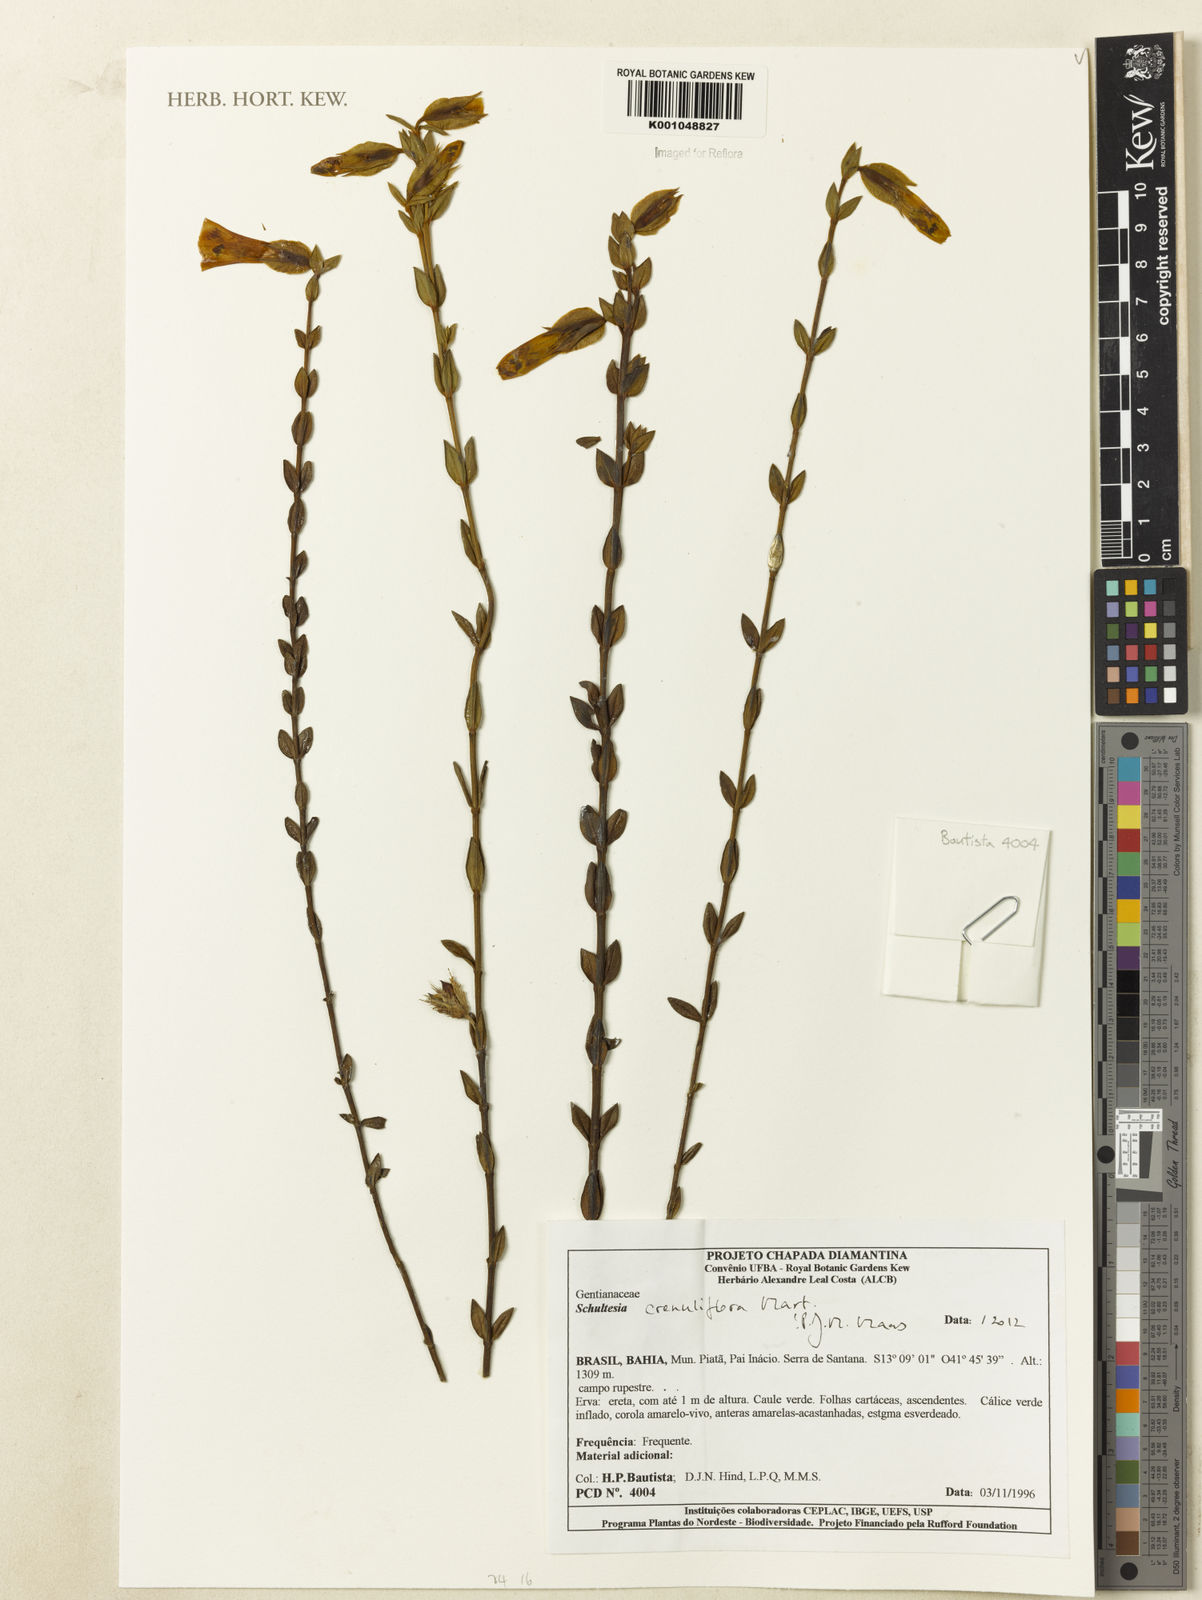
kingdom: Plantae
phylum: Tracheophyta
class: Magnoliopsida
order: Gentianales
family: Gentianaceae
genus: Schultesia
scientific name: Schultesia crenuliflora
